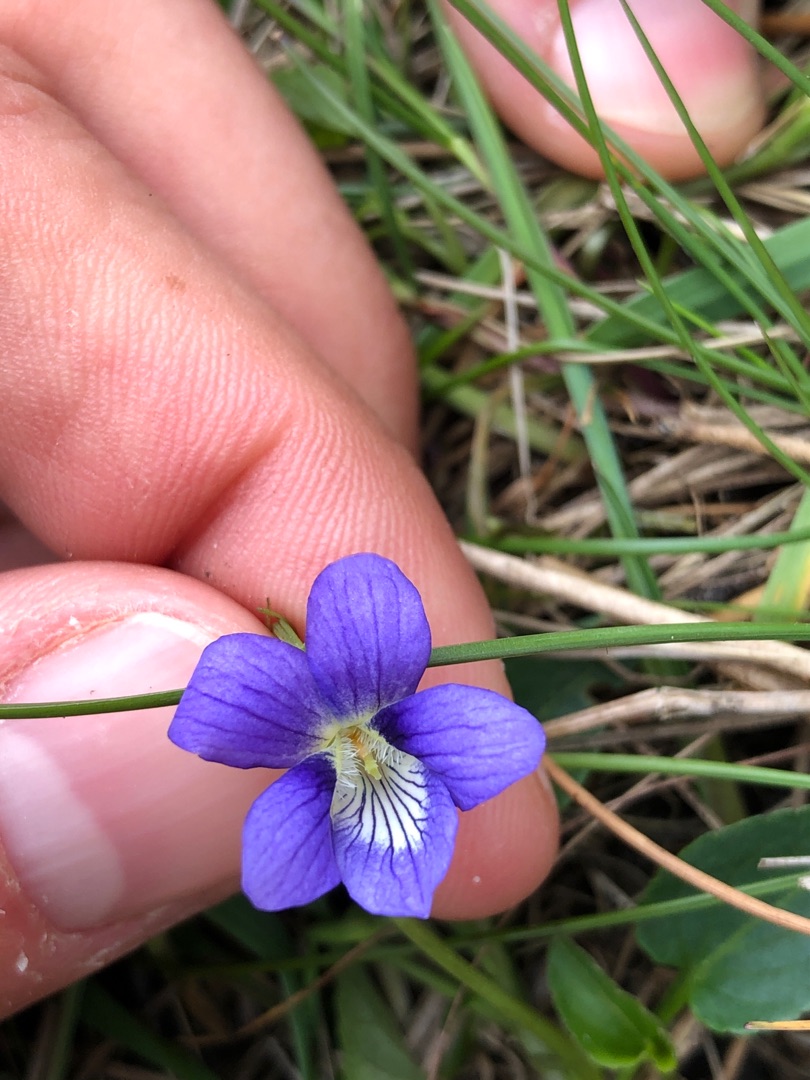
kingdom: Plantae
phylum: Tracheophyta
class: Magnoliopsida
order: Malpighiales
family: Violaceae
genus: Viola
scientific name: Viola canina
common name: Hunde-viol
